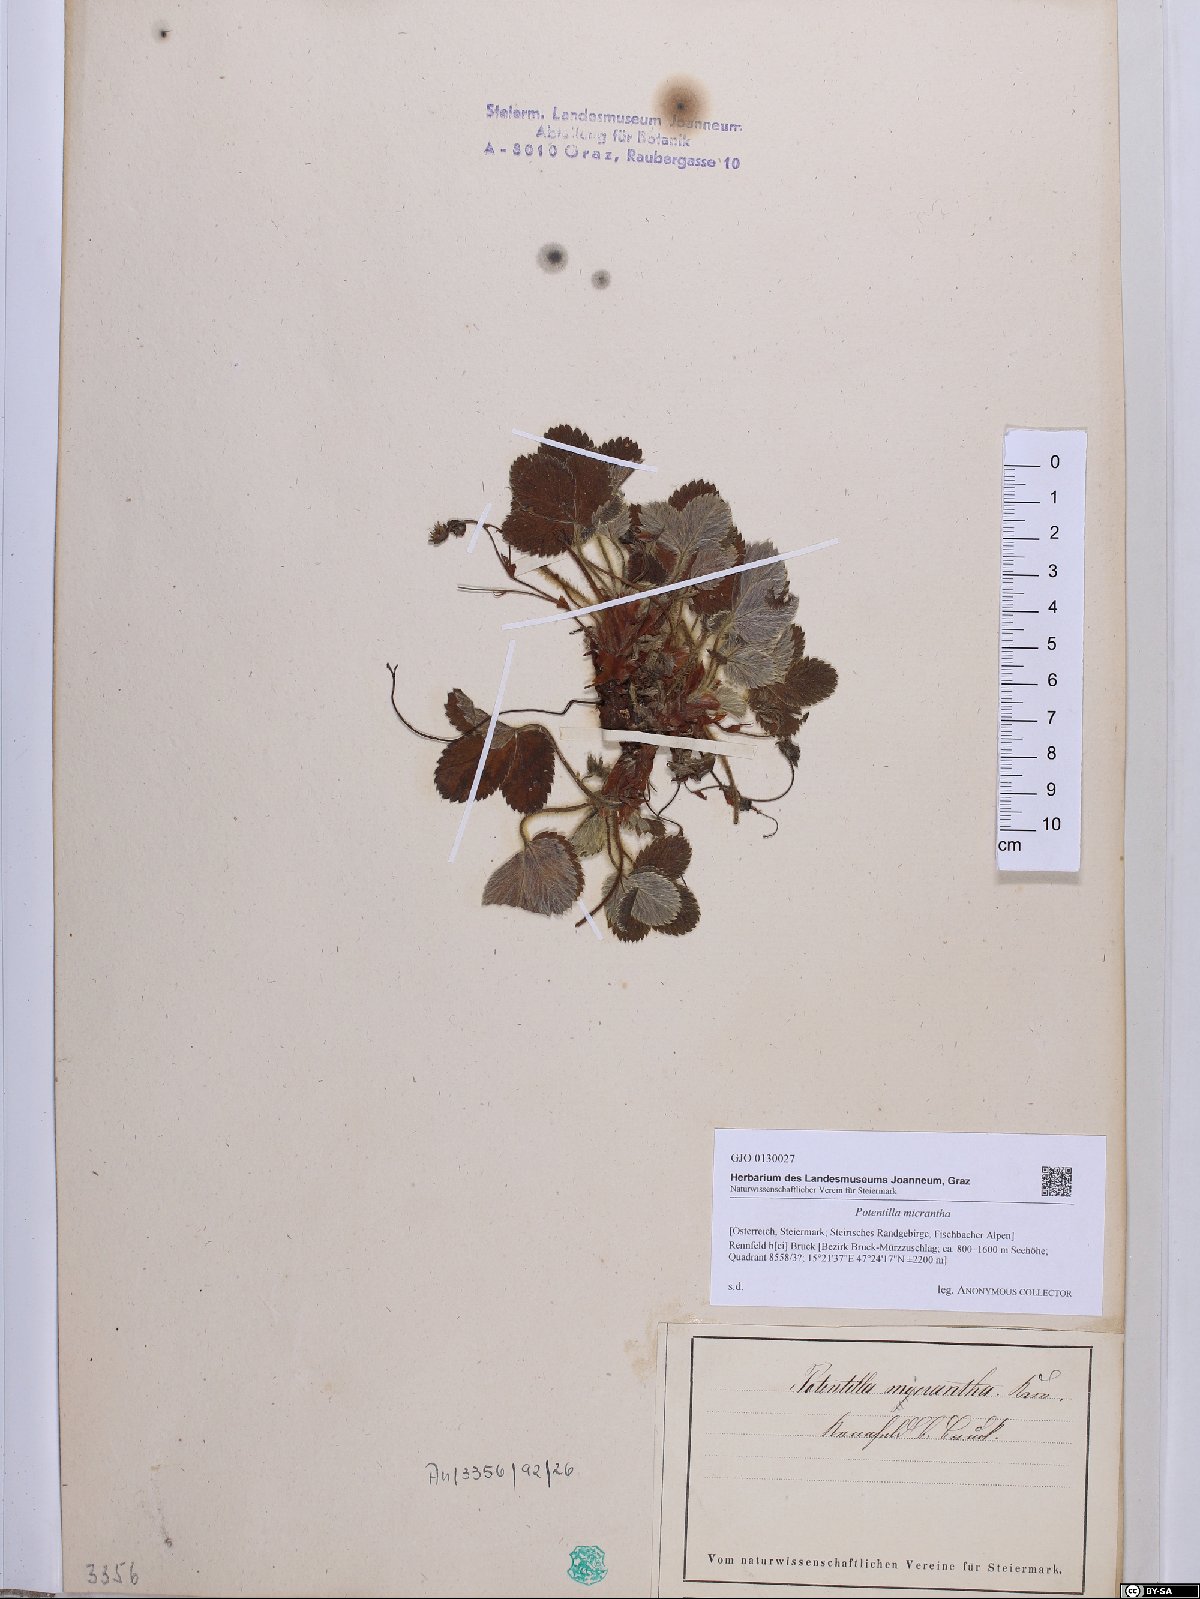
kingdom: Plantae
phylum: Tracheophyta
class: Magnoliopsida
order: Rosales
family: Rosaceae
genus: Potentilla
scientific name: Potentilla micrantha
